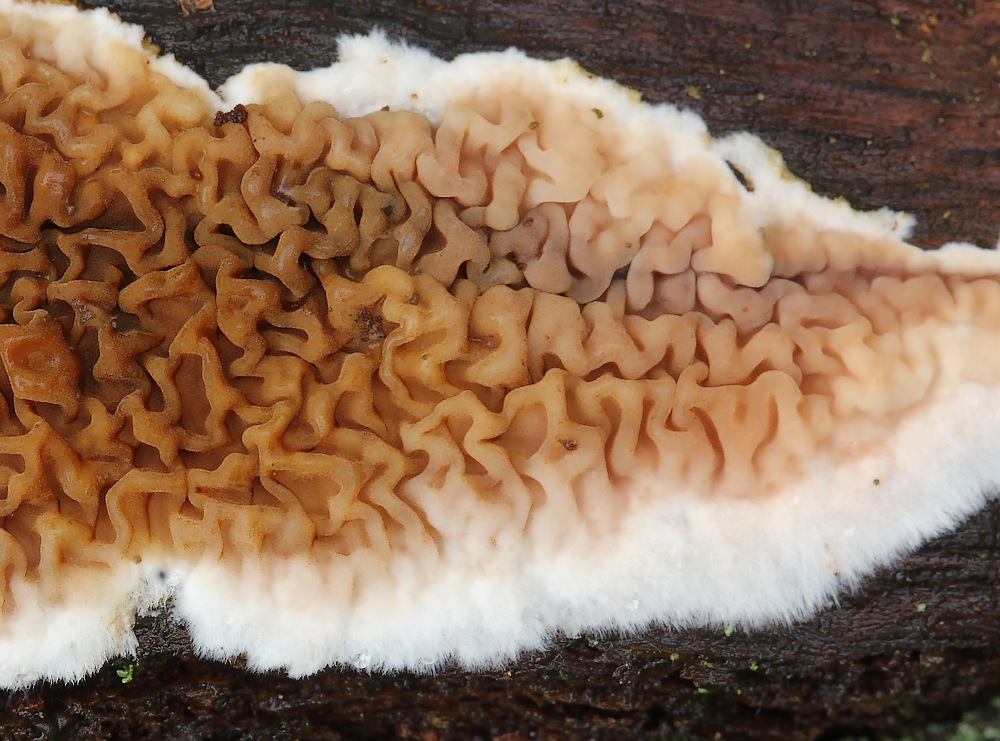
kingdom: Fungi
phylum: Basidiomycota
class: Agaricomycetes
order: Boletales
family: Serpulaceae
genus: Serpula
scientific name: Serpula himantioides
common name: tyndkødet hussvamp
